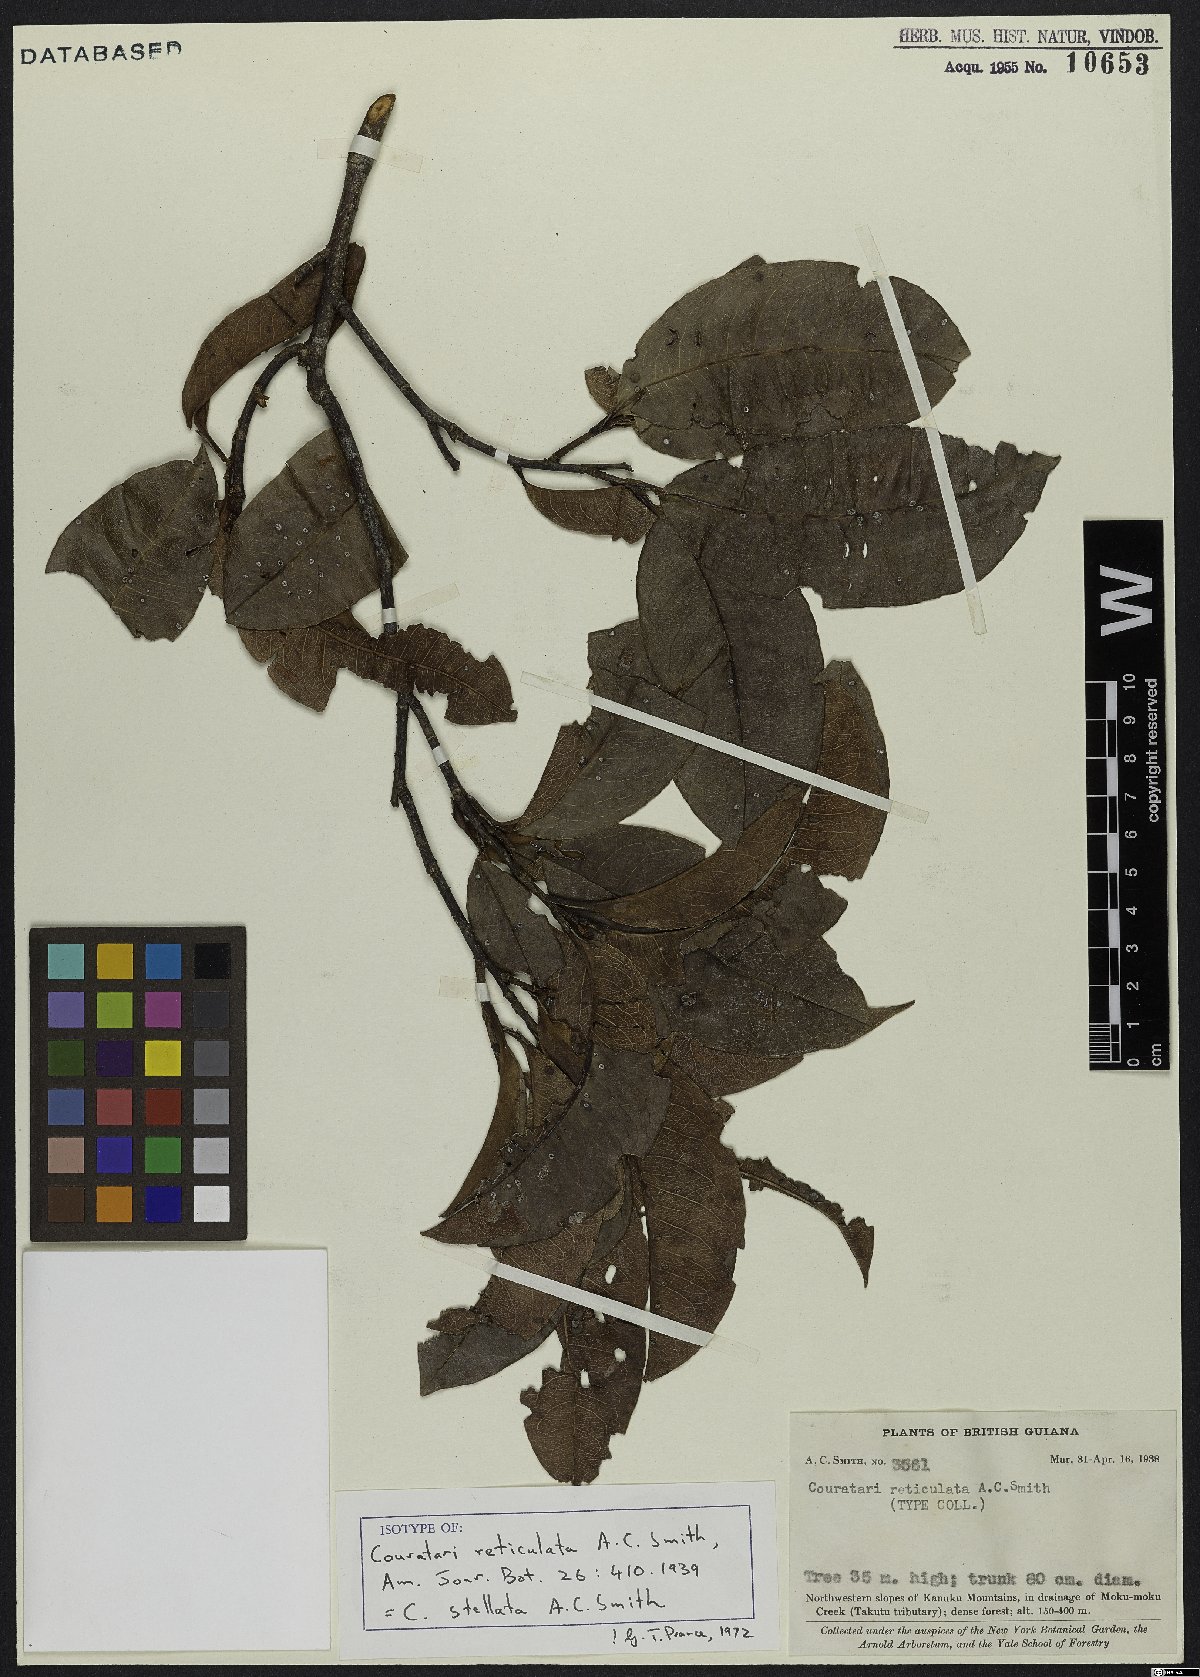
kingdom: Plantae
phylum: Tracheophyta
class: Magnoliopsida
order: Ericales
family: Lecythidaceae
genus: Couratari
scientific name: Couratari stellata
